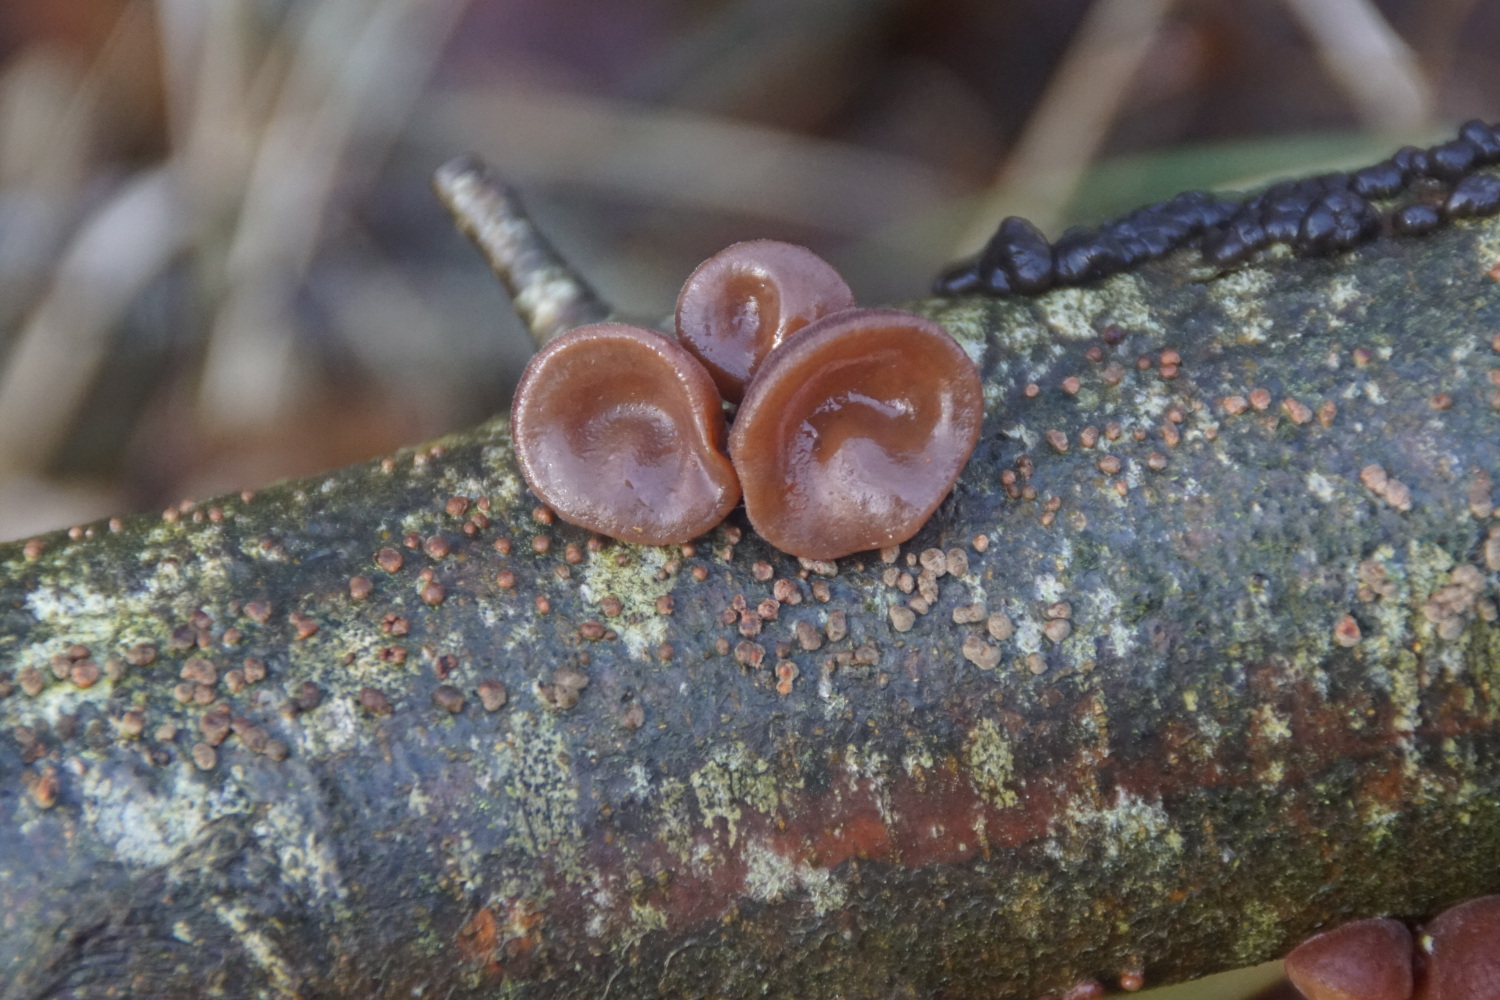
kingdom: Fungi
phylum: Basidiomycota
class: Agaricomycetes
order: Auriculariales
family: Auriculariaceae
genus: Auricularia
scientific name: Auricularia auricula-judae
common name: almindelig judasøre
